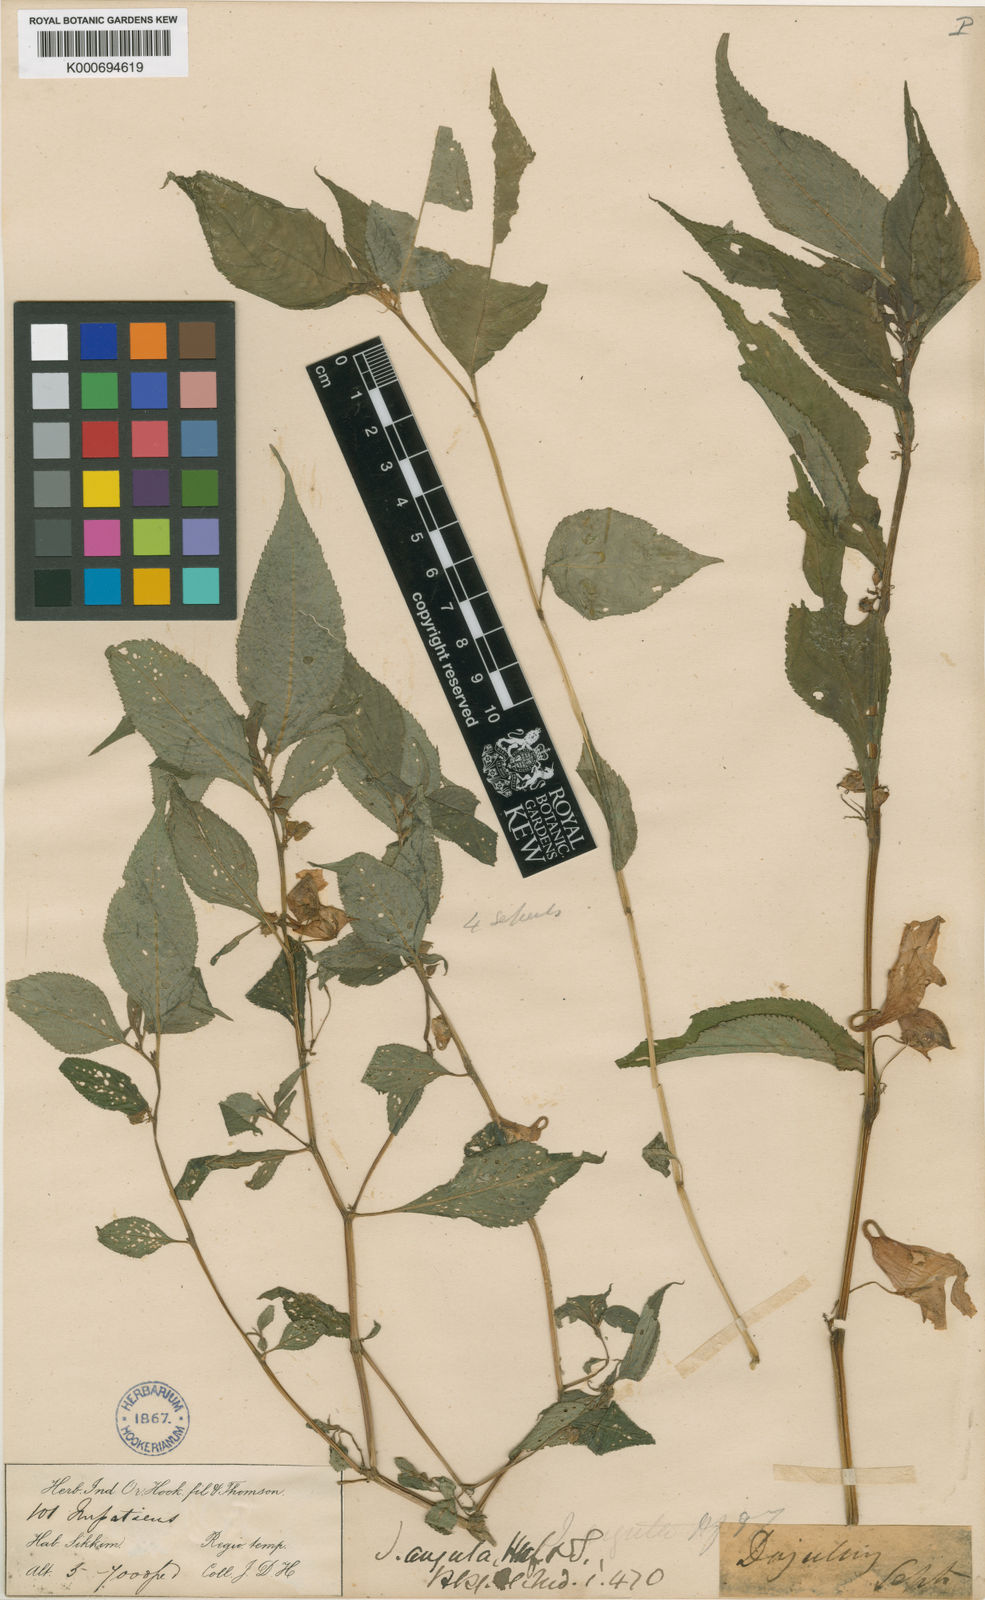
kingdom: Plantae
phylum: Tracheophyta
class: Magnoliopsida
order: Ericales
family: Balsaminaceae
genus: Impatiens
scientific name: Impatiens arguta
